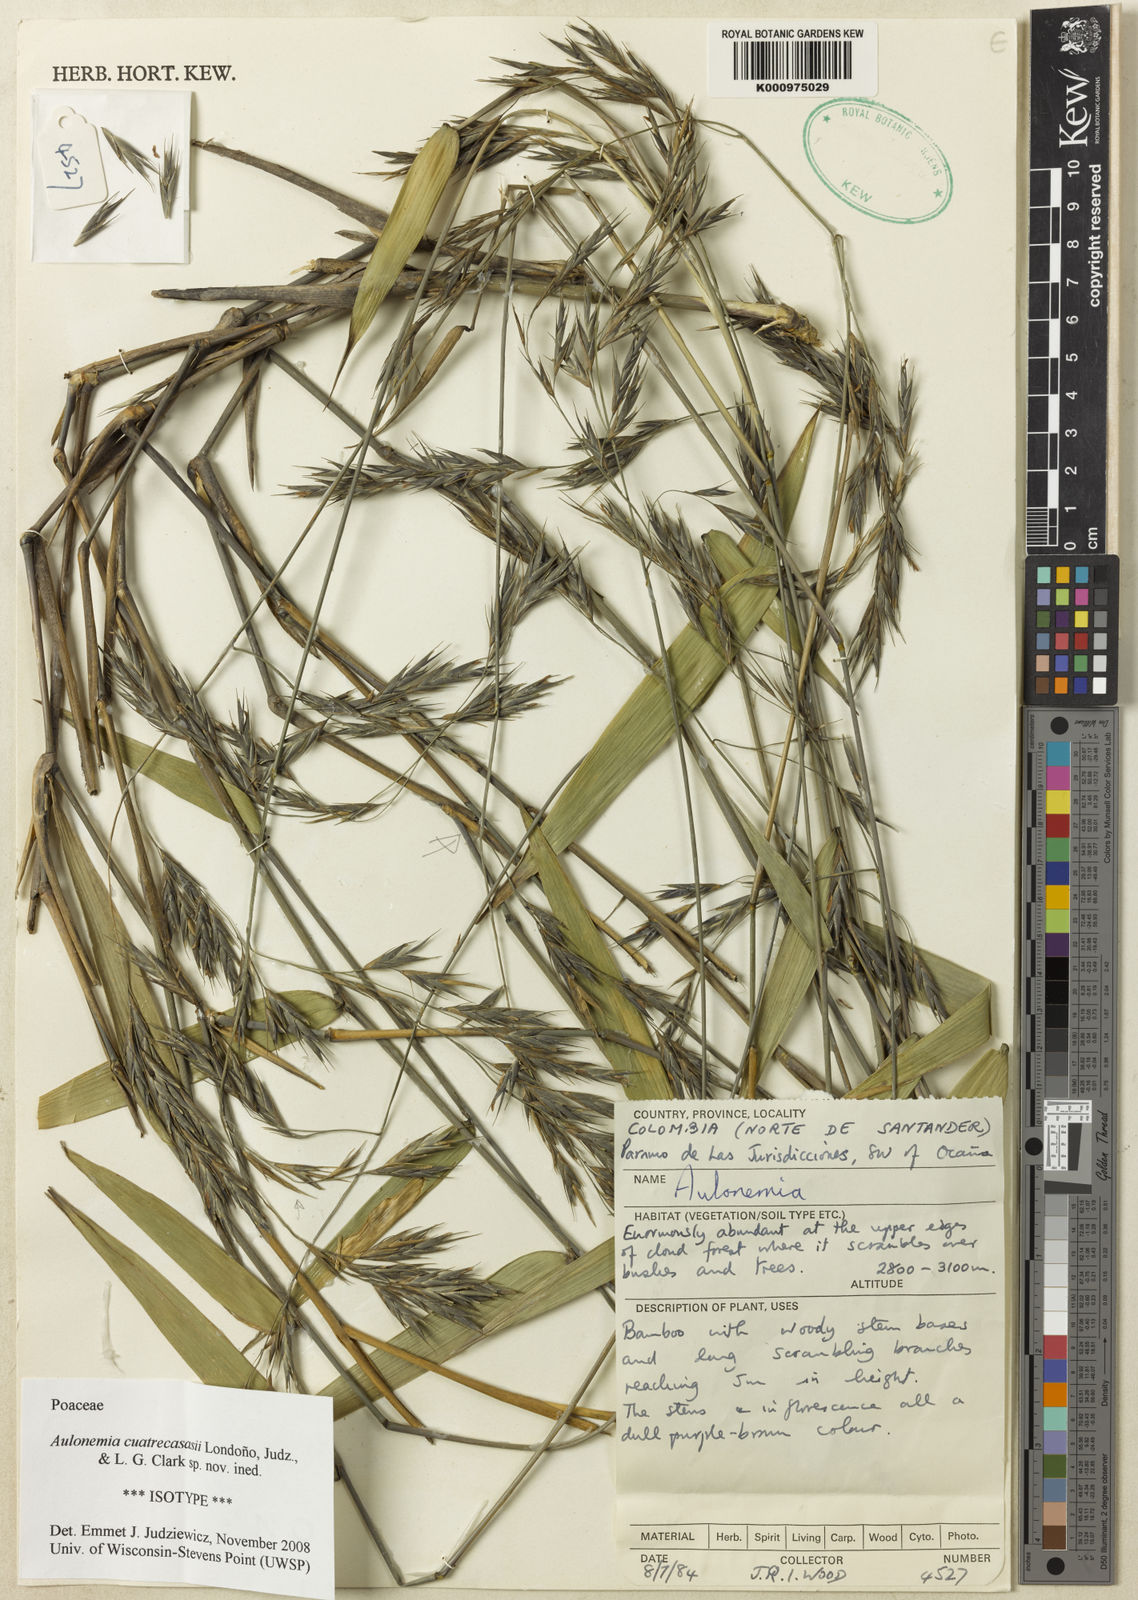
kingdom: Plantae
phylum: Tracheophyta
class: Liliopsida
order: Poales
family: Poaceae
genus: Aulonemia
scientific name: Aulonemia
